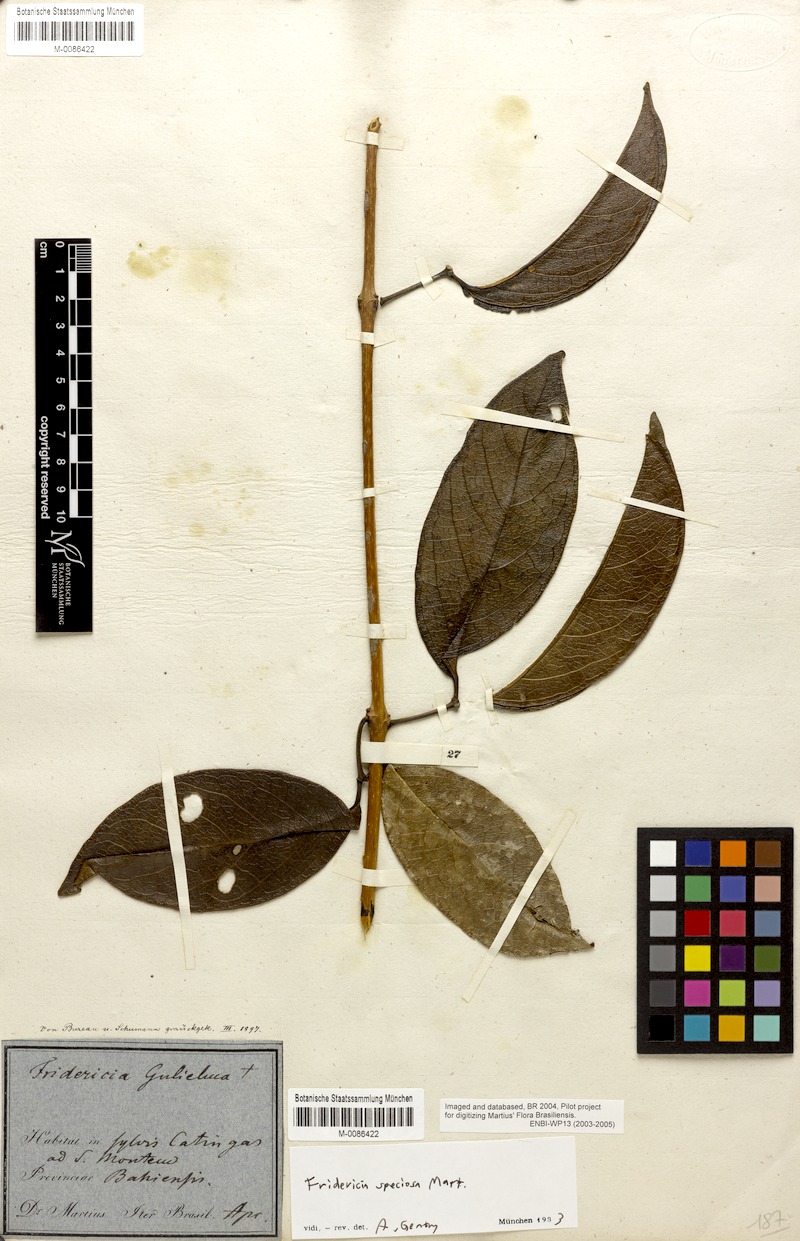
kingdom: Plantae
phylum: Tracheophyta
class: Magnoliopsida
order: Lamiales
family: Bignoniaceae
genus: Fridericia
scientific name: Fridericia speciosa
